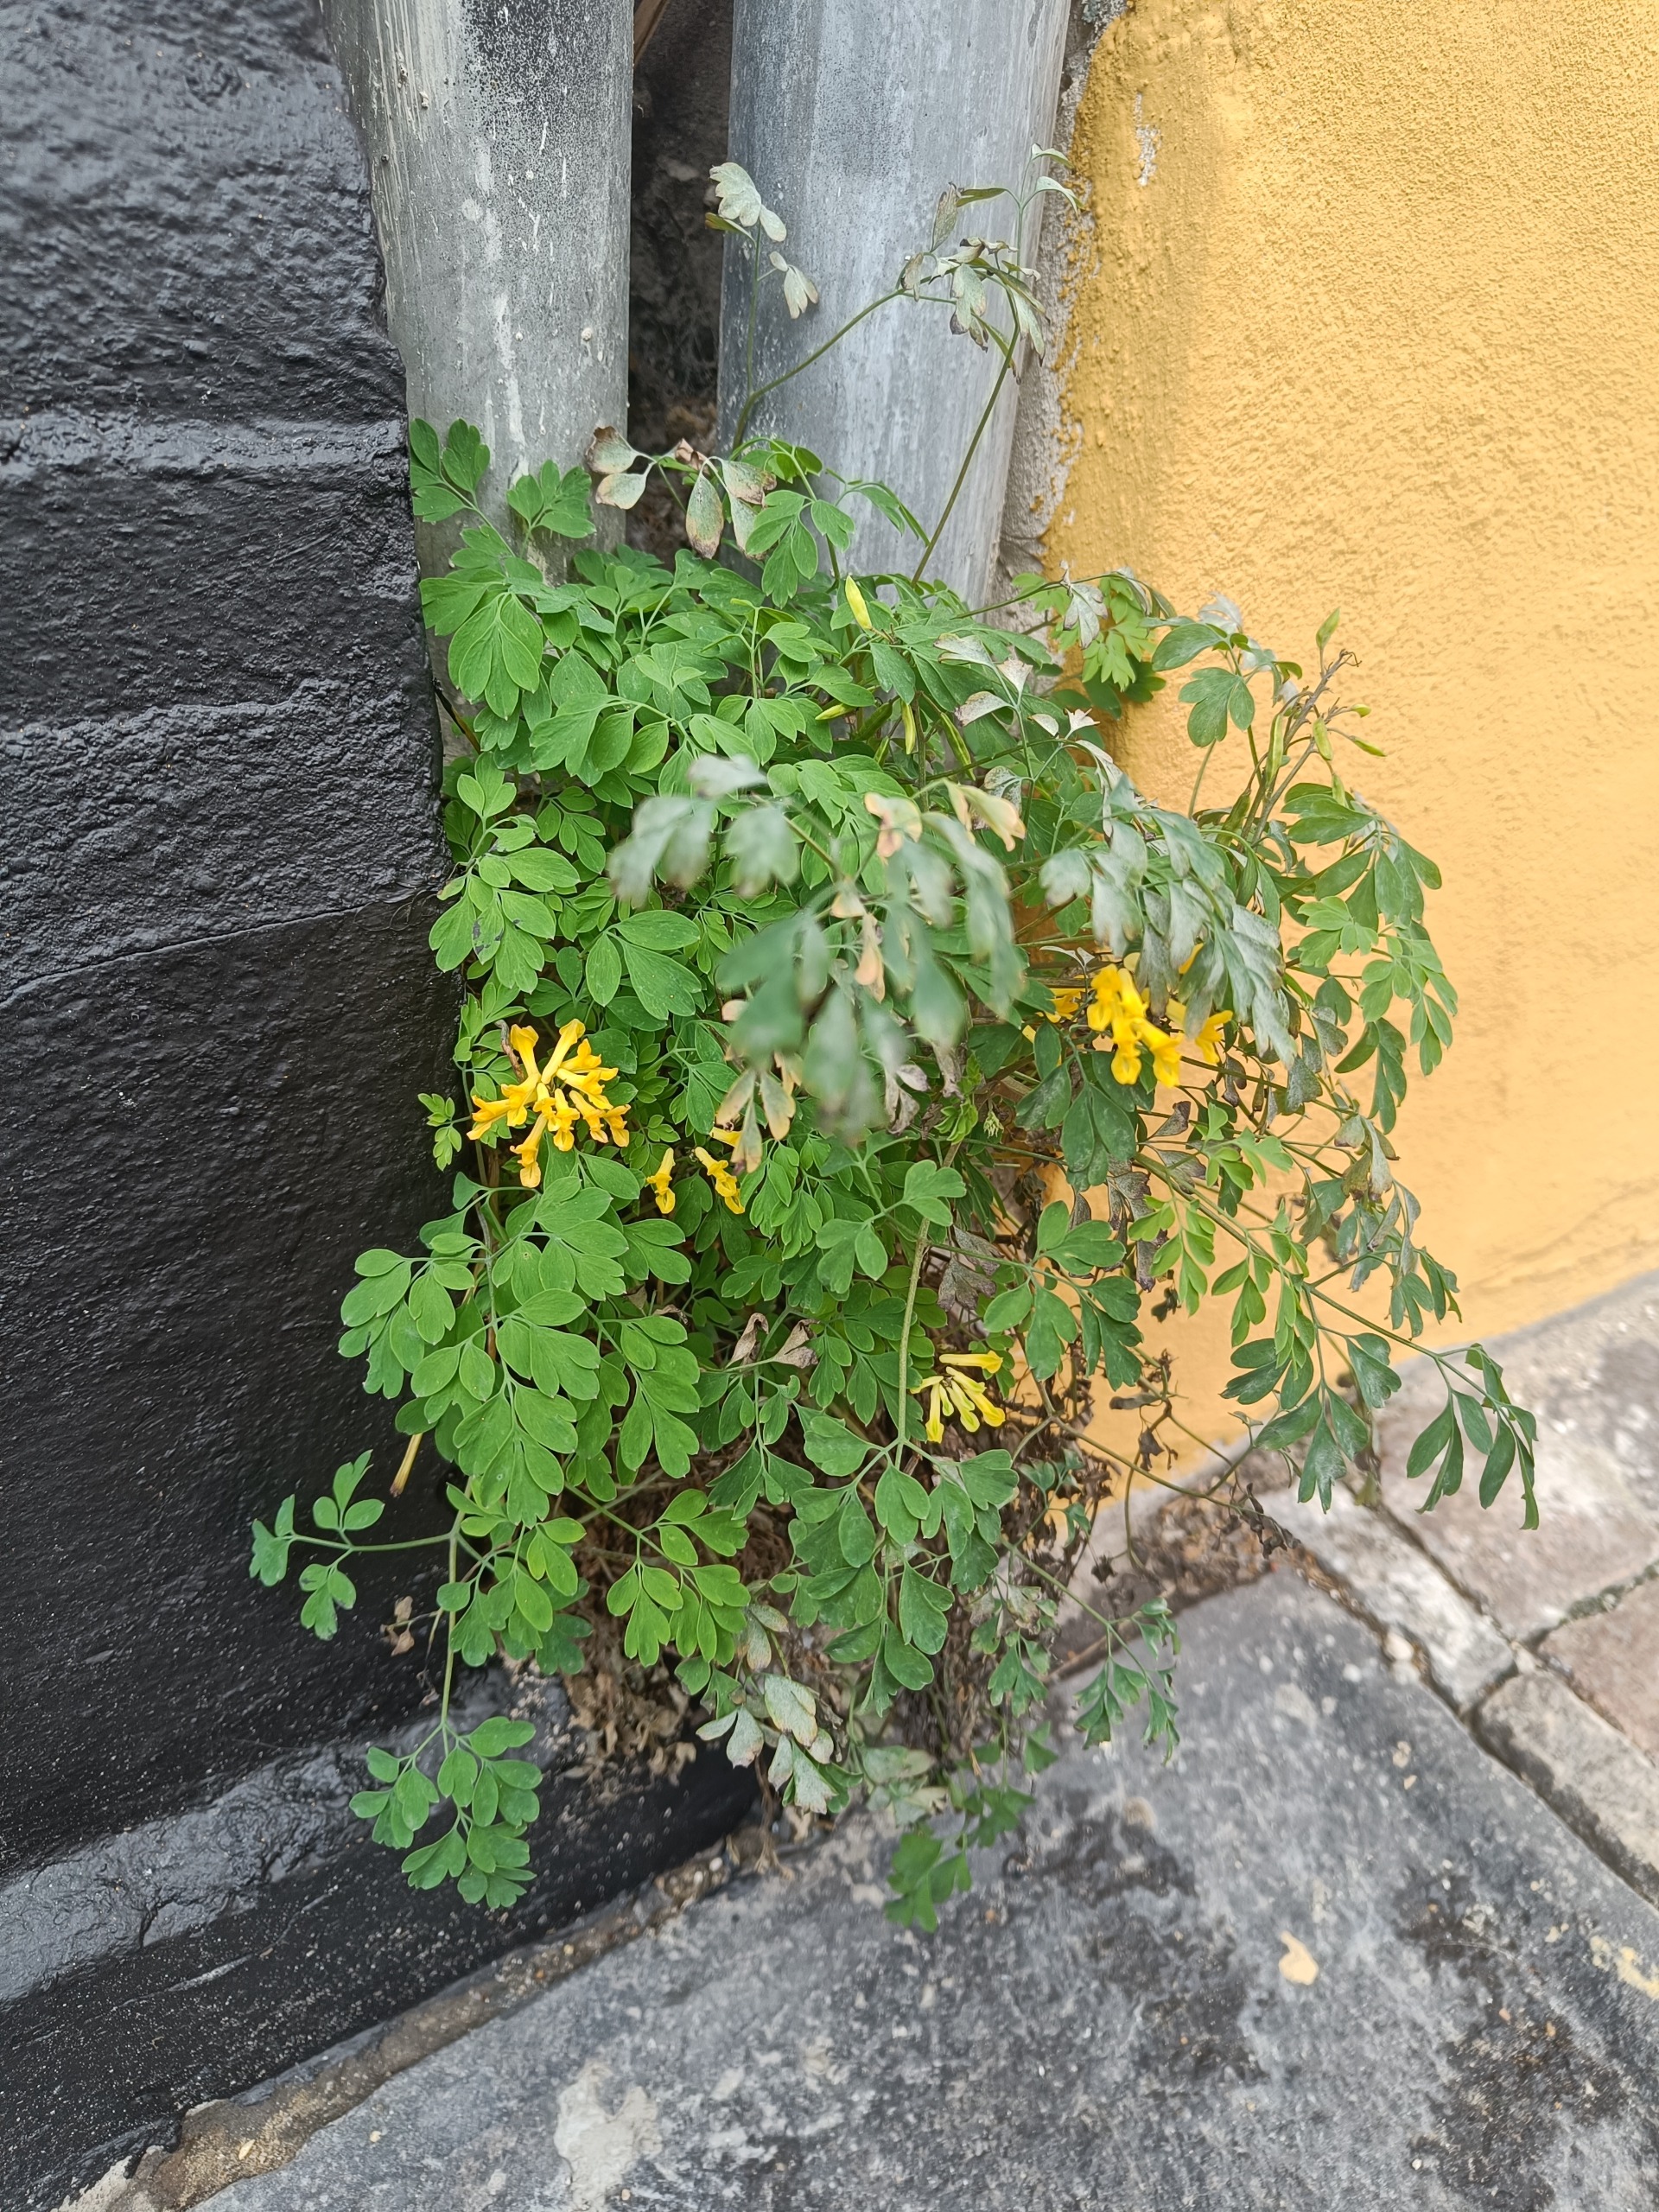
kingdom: Plantae
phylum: Tracheophyta
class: Magnoliopsida
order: Ranunculales
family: Papaveraceae
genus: Pseudofumaria
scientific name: Pseudofumaria lutea
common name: Gul lærkespore
